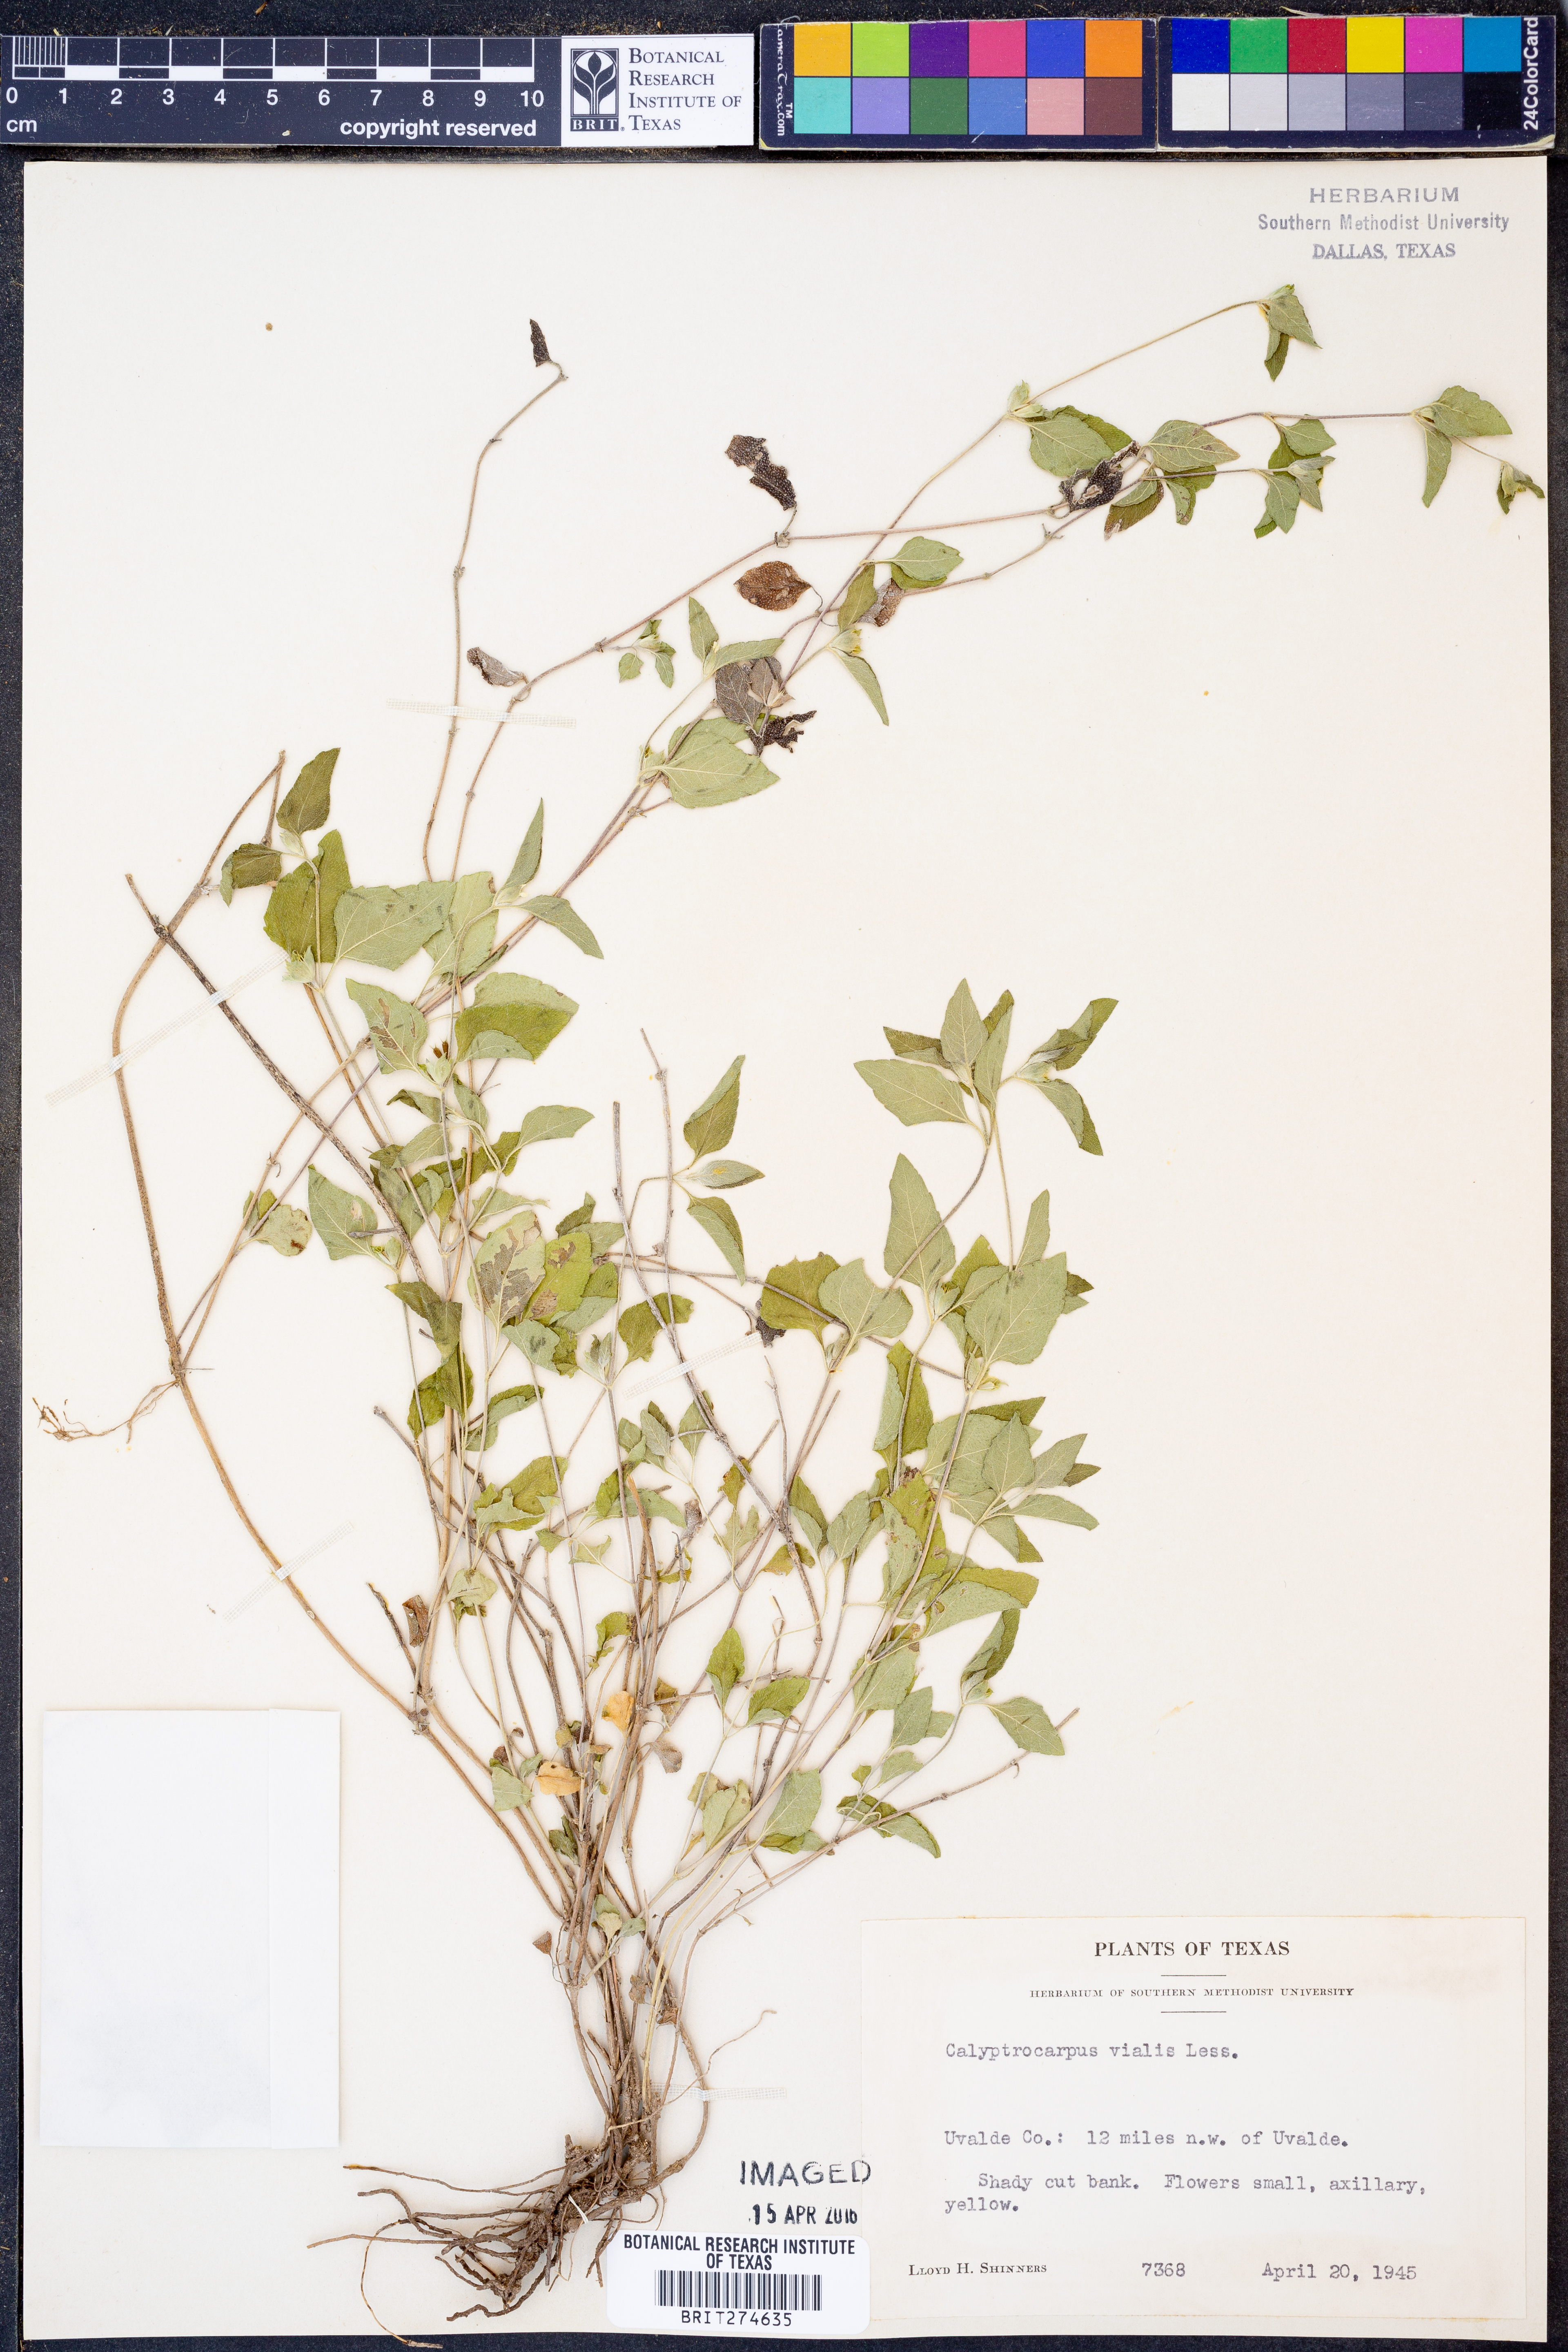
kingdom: Plantae
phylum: Tracheophyta
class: Magnoliopsida
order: Asterales
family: Asteraceae
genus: Calyptocarpus
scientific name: Calyptocarpus vialis
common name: Straggler daisy
